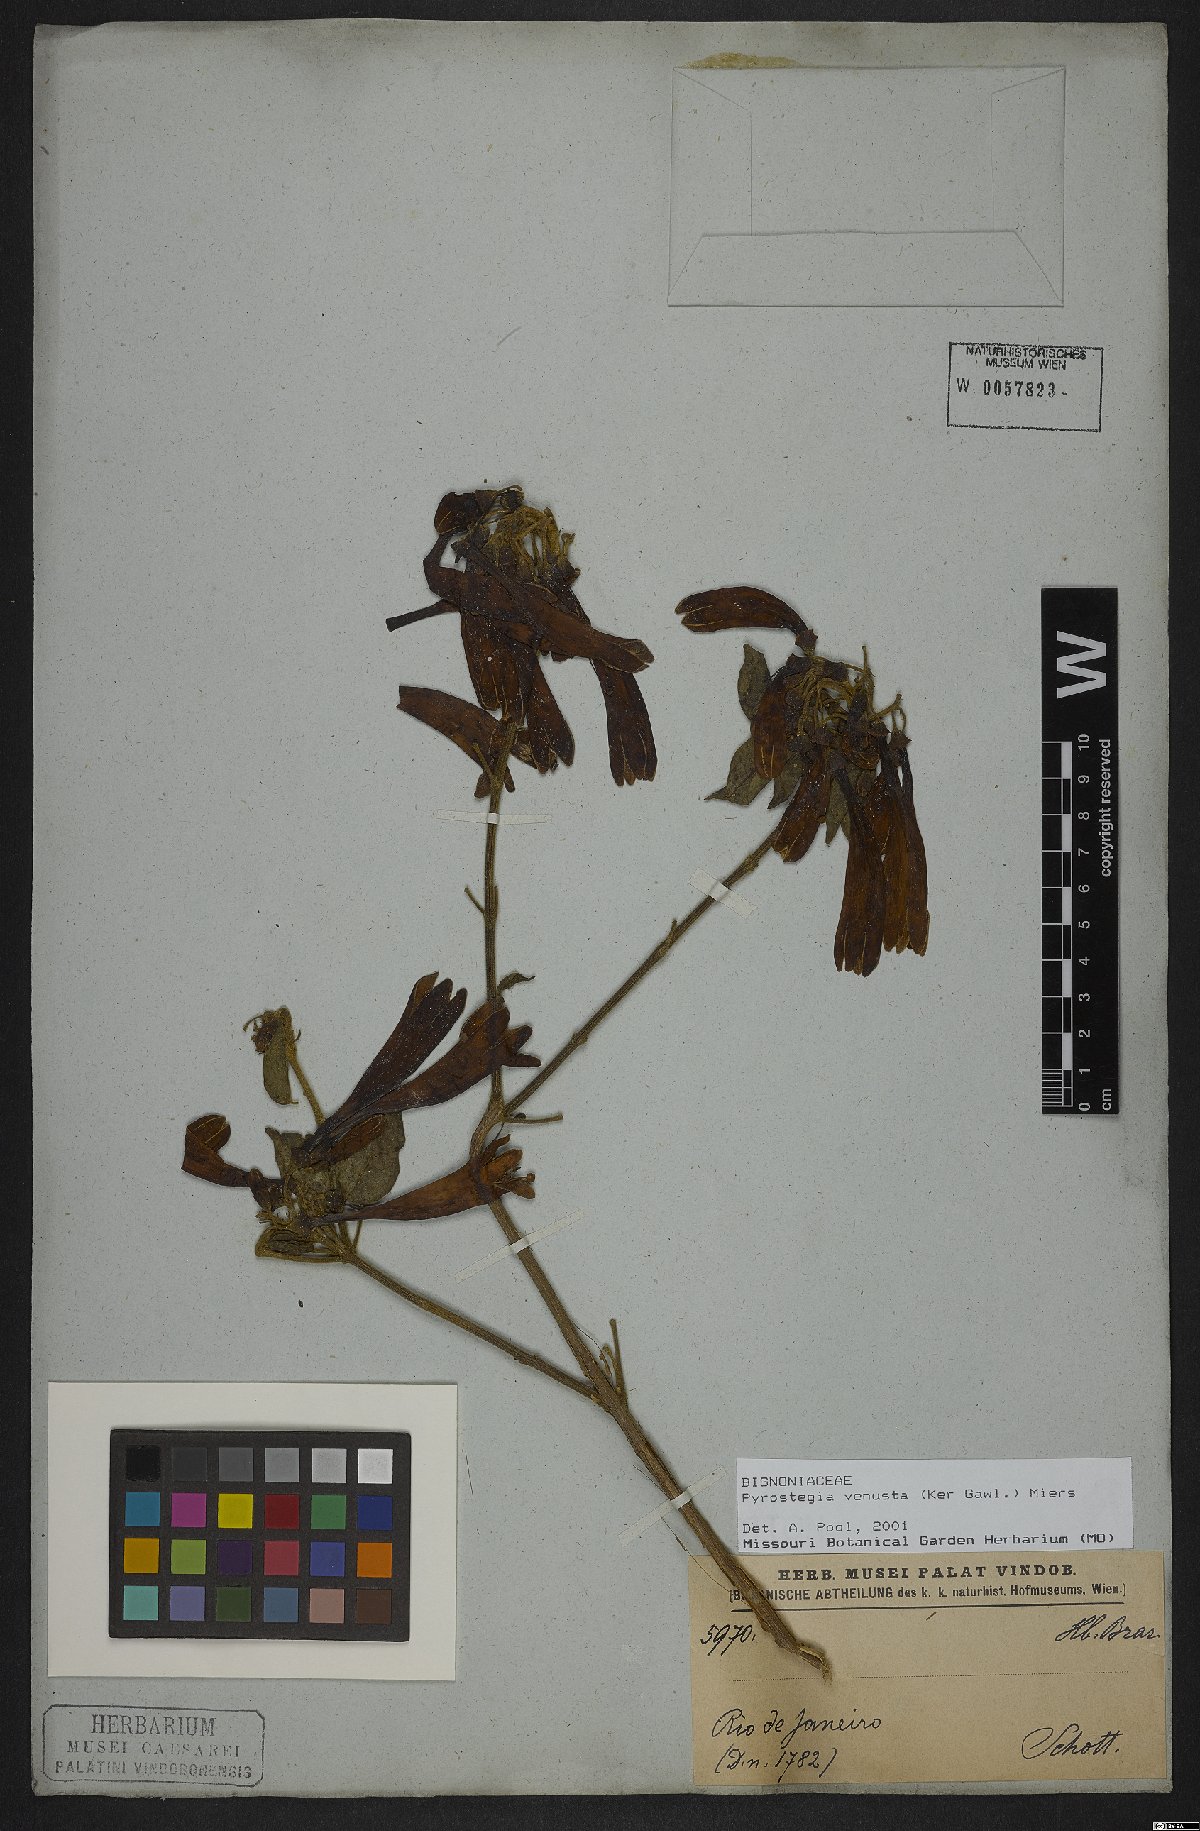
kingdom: Plantae
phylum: Tracheophyta
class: Magnoliopsida
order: Lamiales
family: Bignoniaceae
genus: Pyrostegia
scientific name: Pyrostegia venusta
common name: Flamevine
